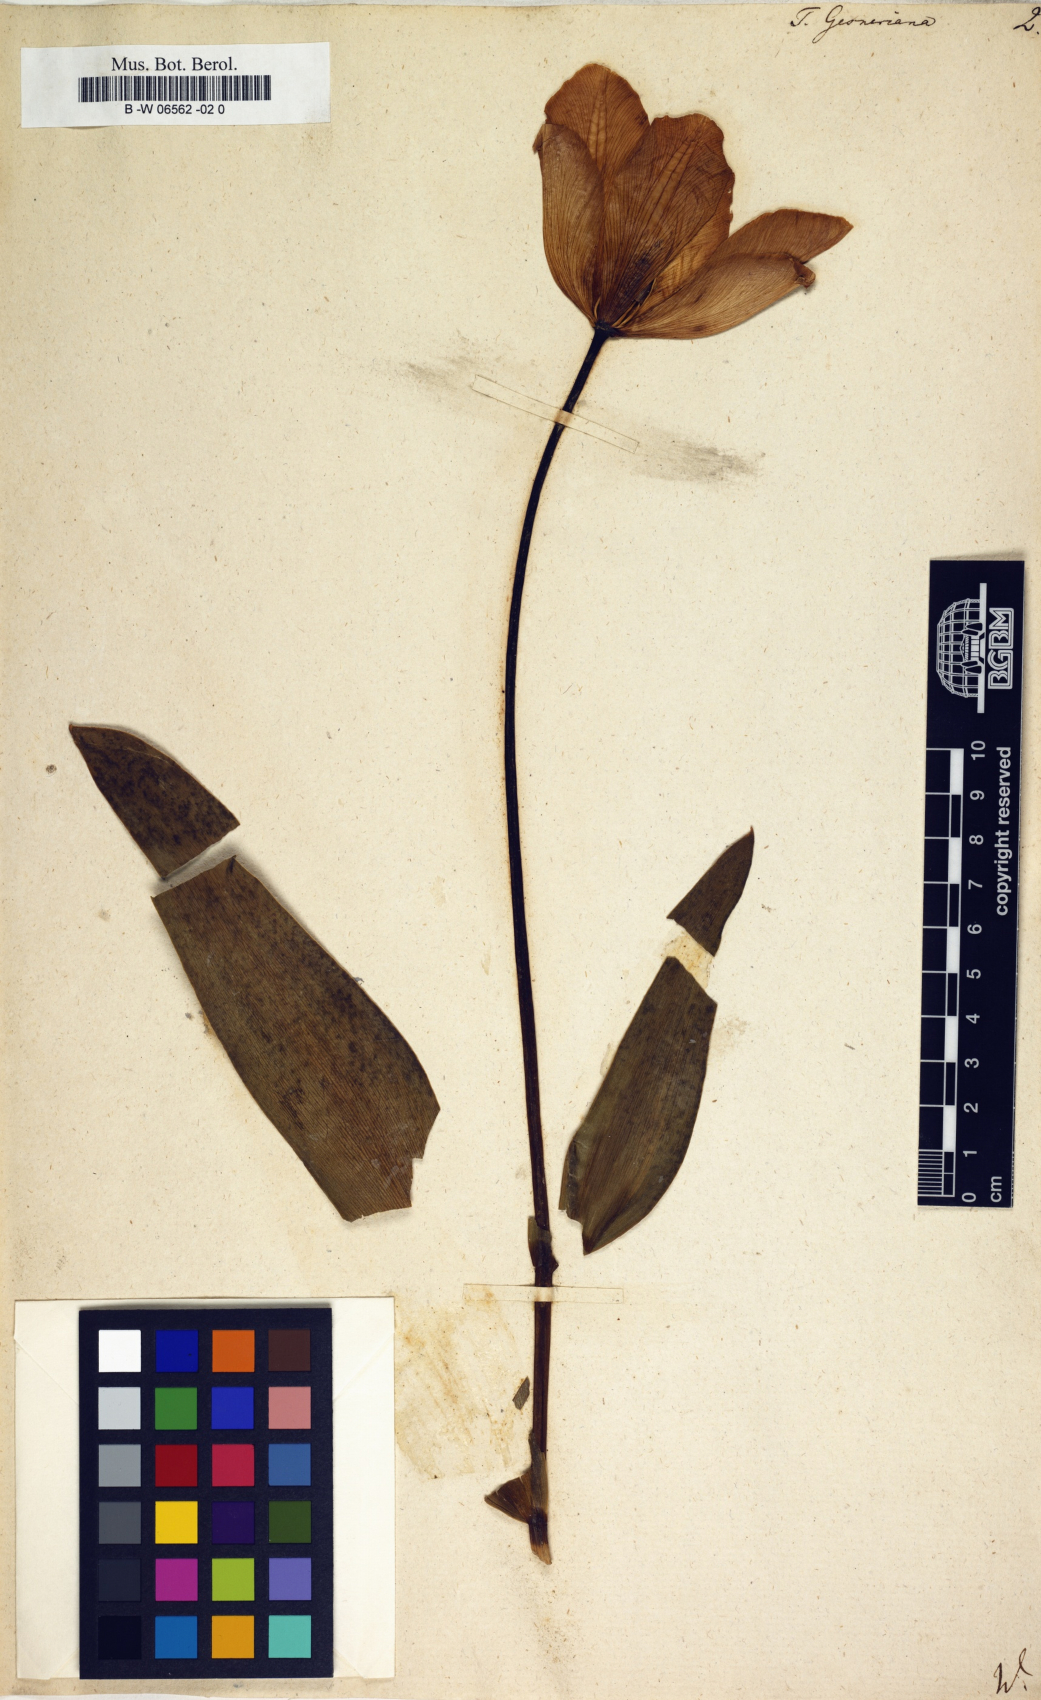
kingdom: Plantae
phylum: Tracheophyta
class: Liliopsida
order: Liliales
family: Liliaceae
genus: Tulipa
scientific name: Tulipa gesneriana
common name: Garden tulip
